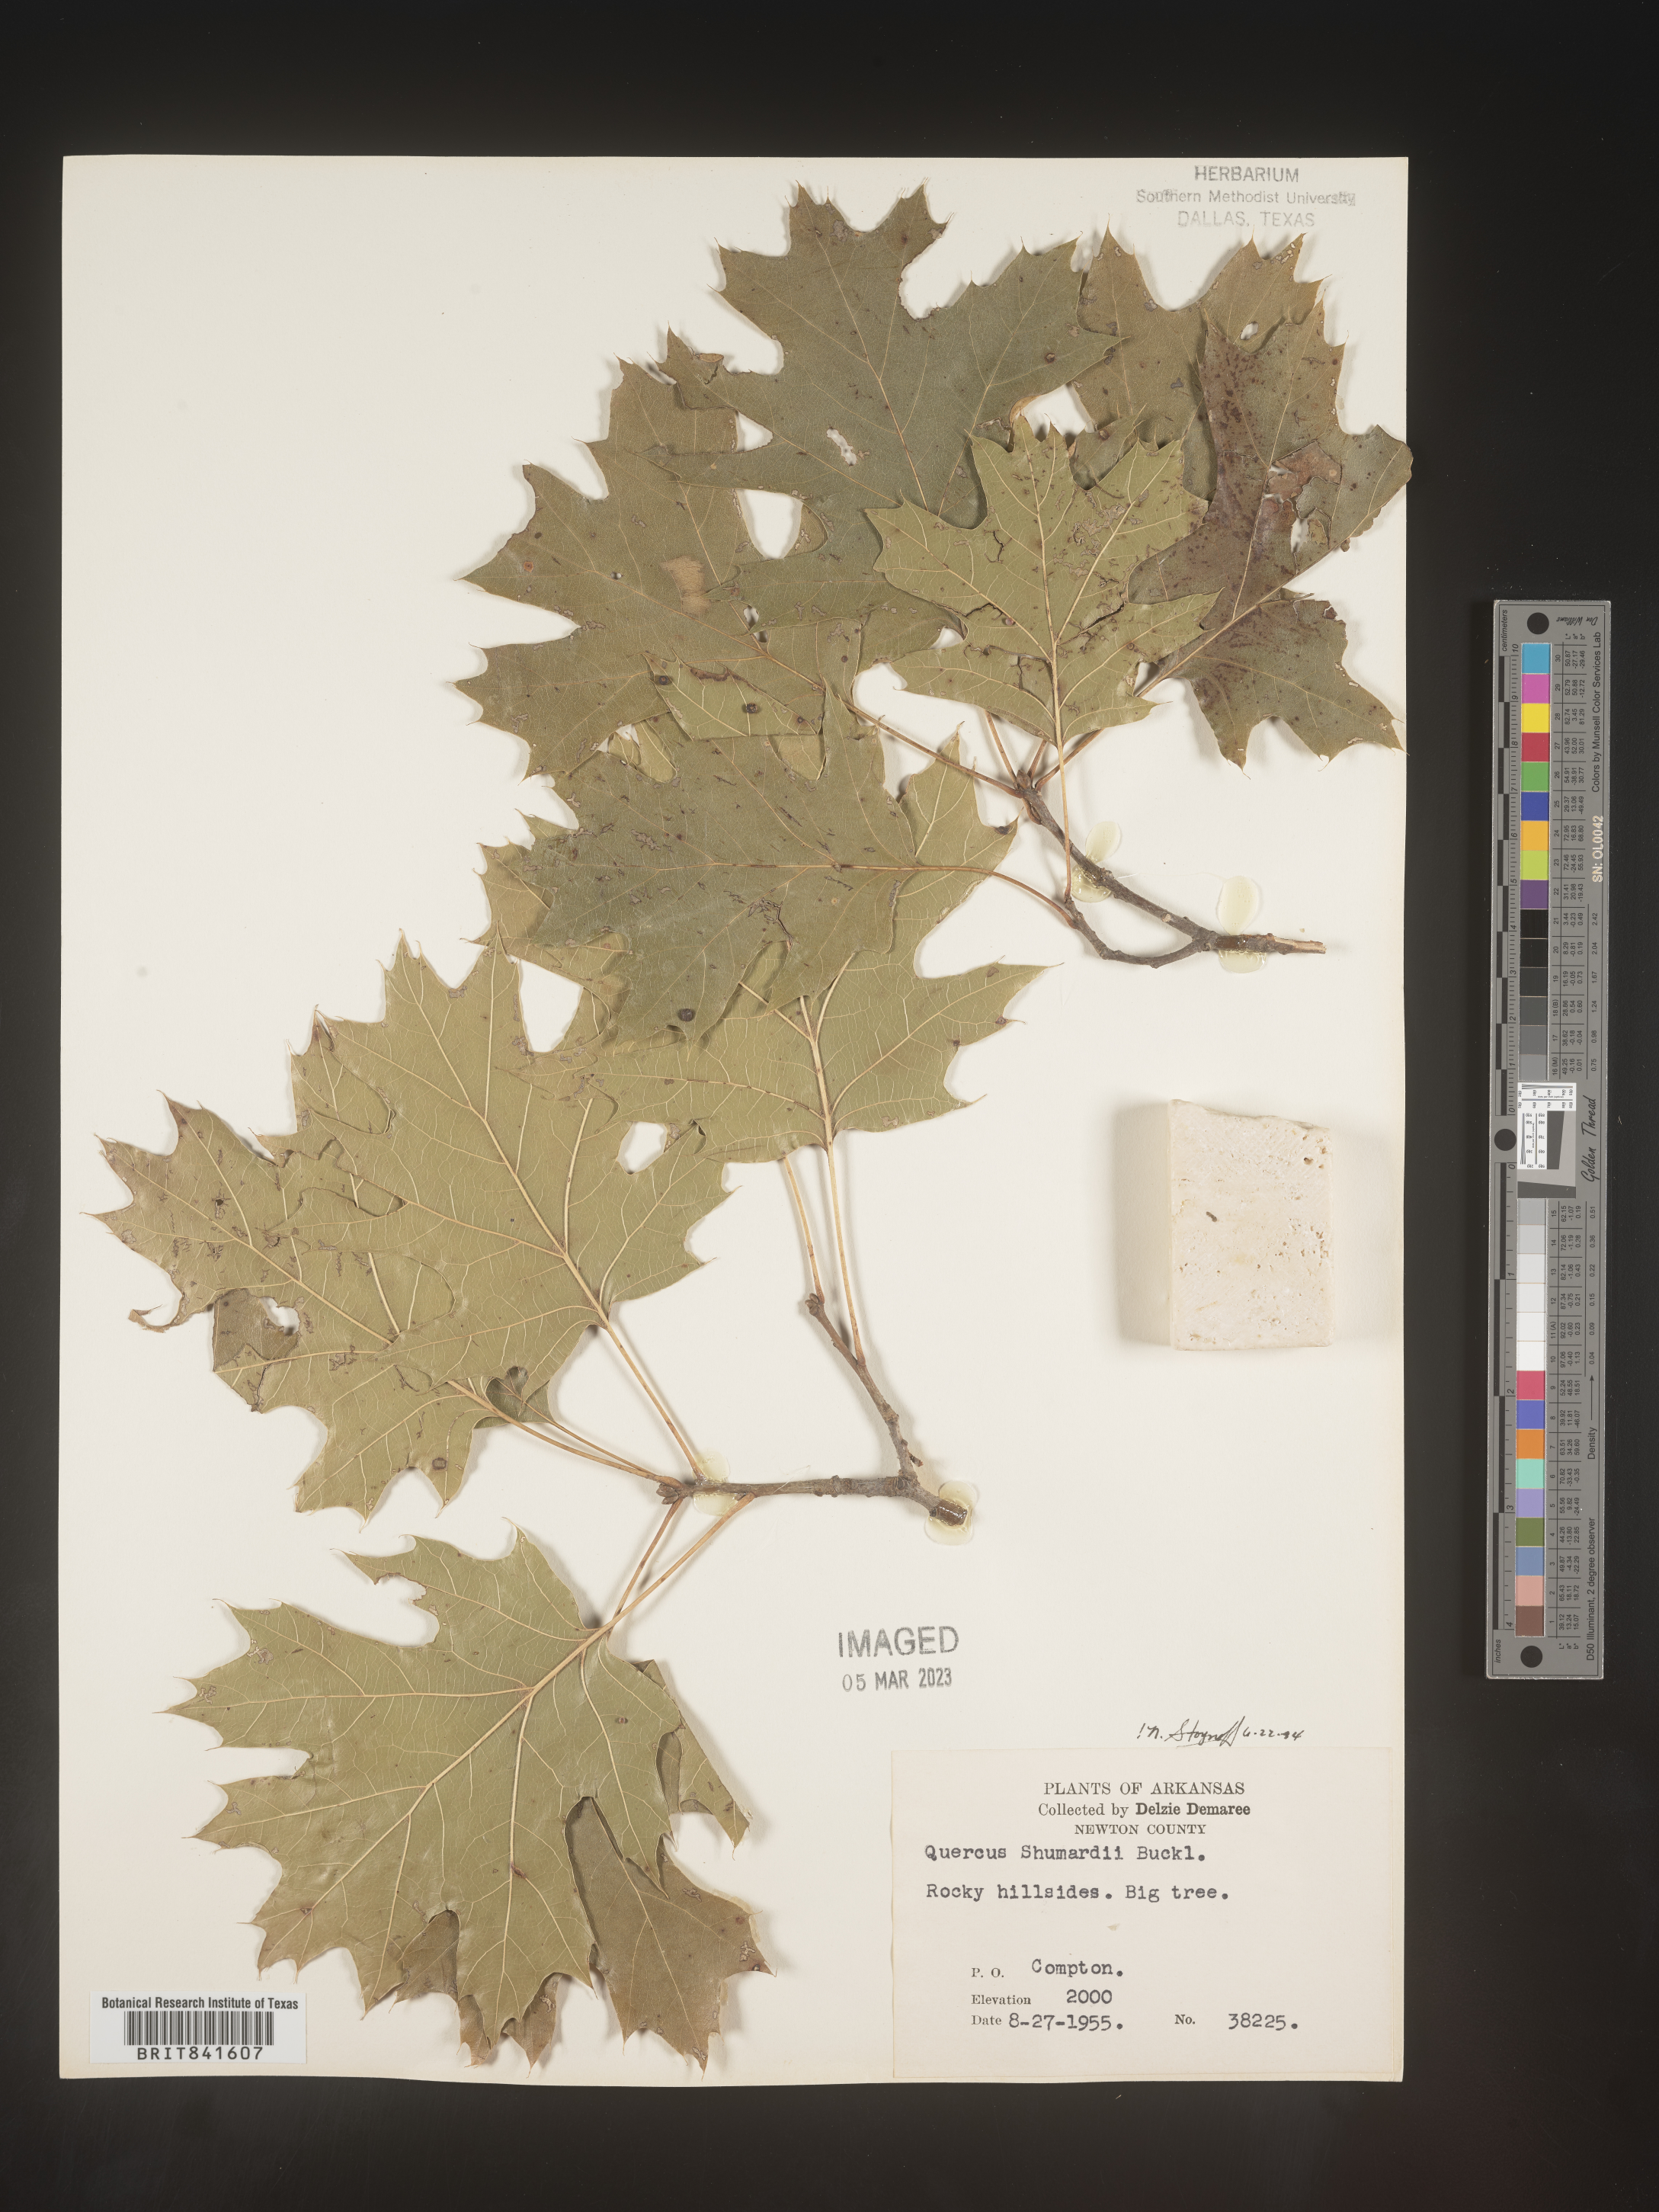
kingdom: Plantae
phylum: Tracheophyta
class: Magnoliopsida
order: Fagales
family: Fagaceae
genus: Quercus
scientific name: Quercus shumardii
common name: Shumard oak
